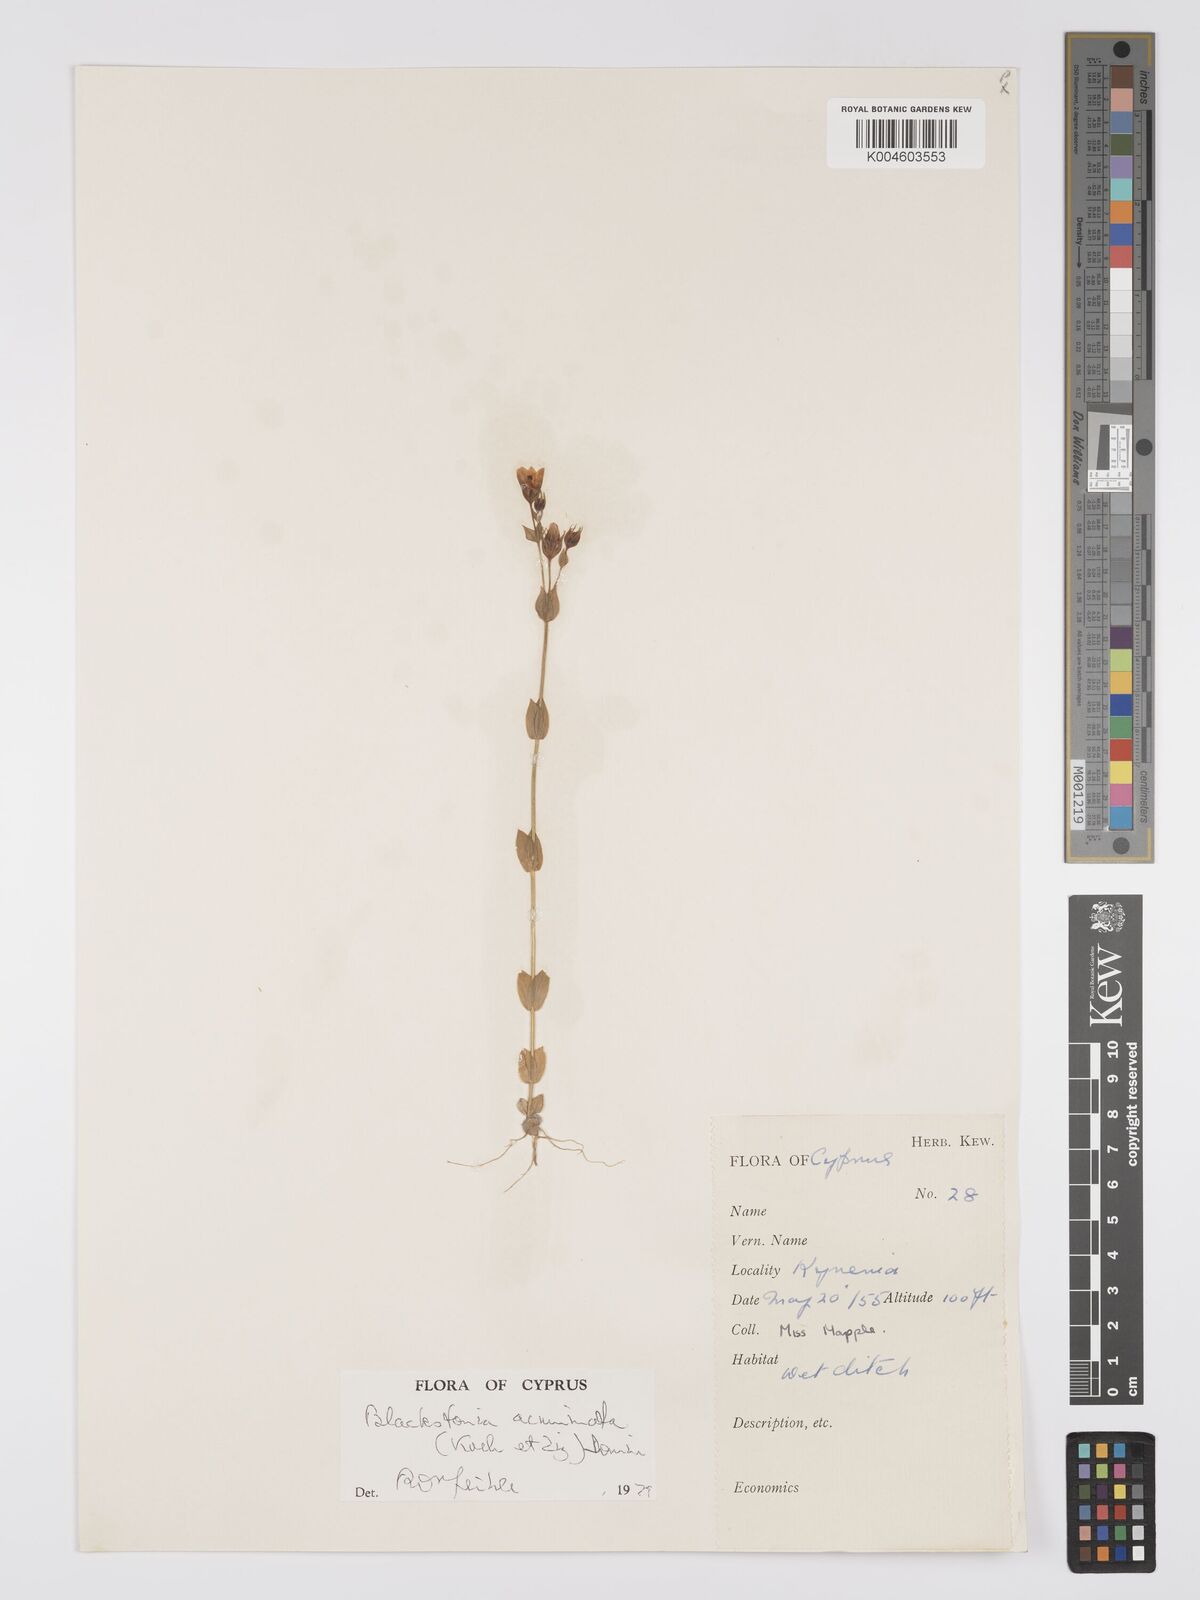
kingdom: Plantae
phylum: Tracheophyta
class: Magnoliopsida
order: Gentianales
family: Gentianaceae
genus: Blackstonia
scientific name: Blackstonia acuminata
